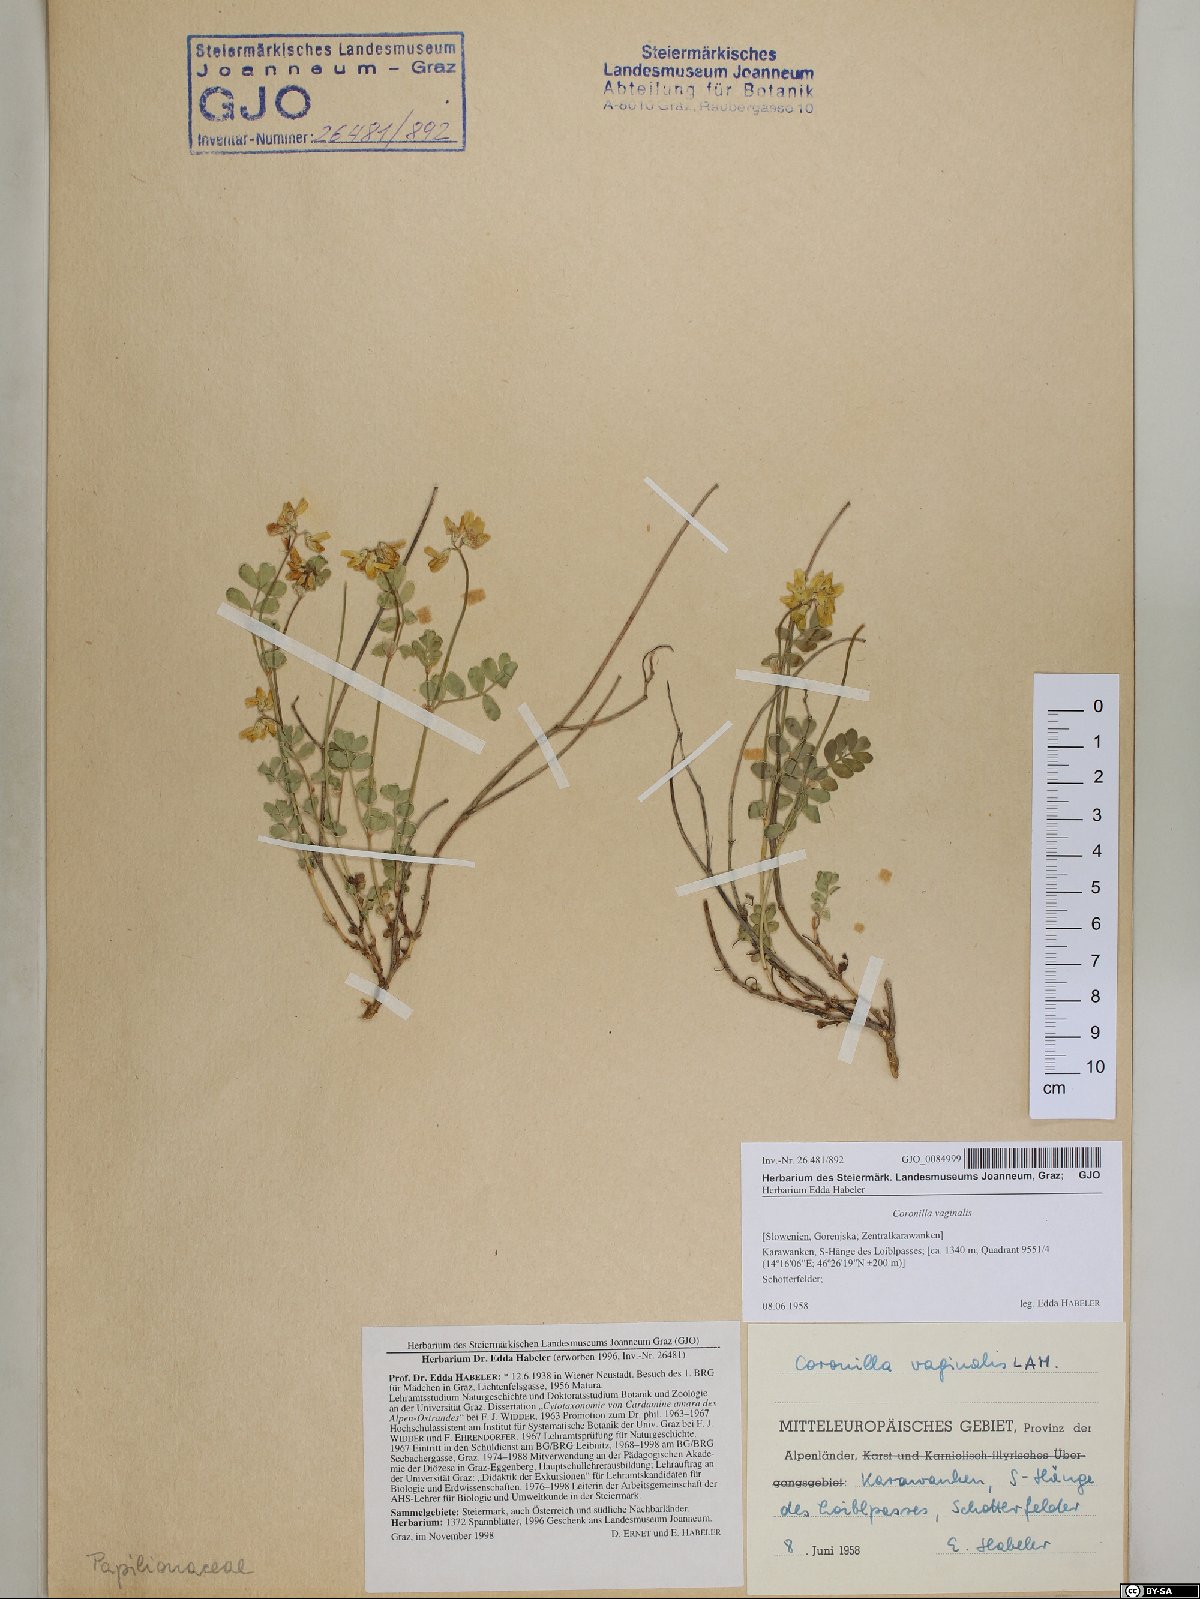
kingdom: Plantae
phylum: Tracheophyta
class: Magnoliopsida
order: Fabales
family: Fabaceae
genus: Coronilla
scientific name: Coronilla vaginalis
